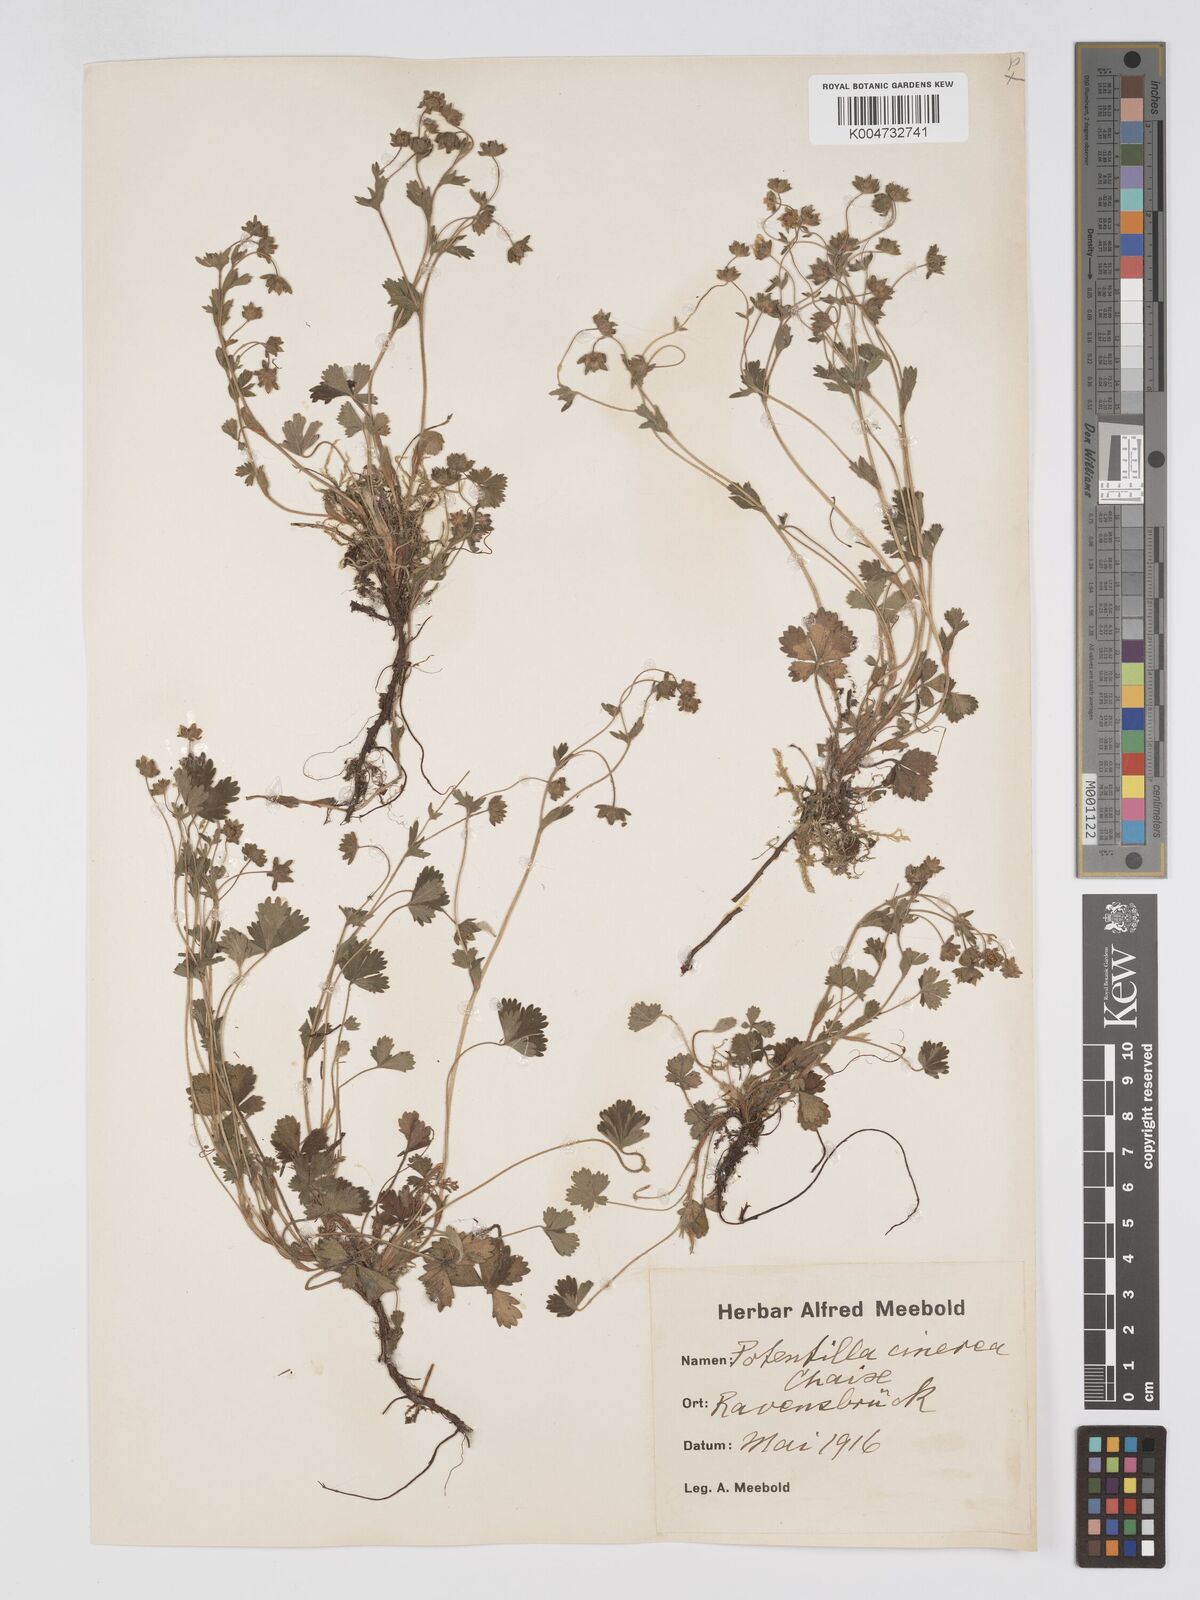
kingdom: Plantae
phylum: Tracheophyta
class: Magnoliopsida
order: Rosales
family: Rosaceae
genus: Potentilla
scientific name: Potentilla
